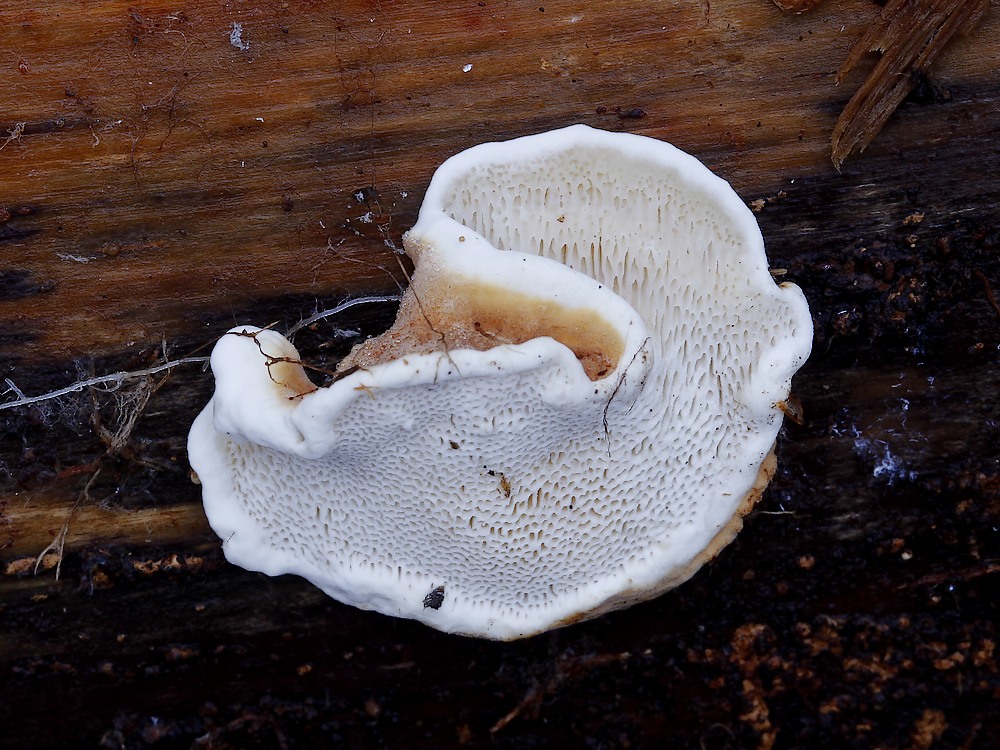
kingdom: Fungi
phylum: Basidiomycota
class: Agaricomycetes
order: Russulales
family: Bondarzewiaceae
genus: Heterobasidion
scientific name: Heterobasidion
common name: rodfordærver
